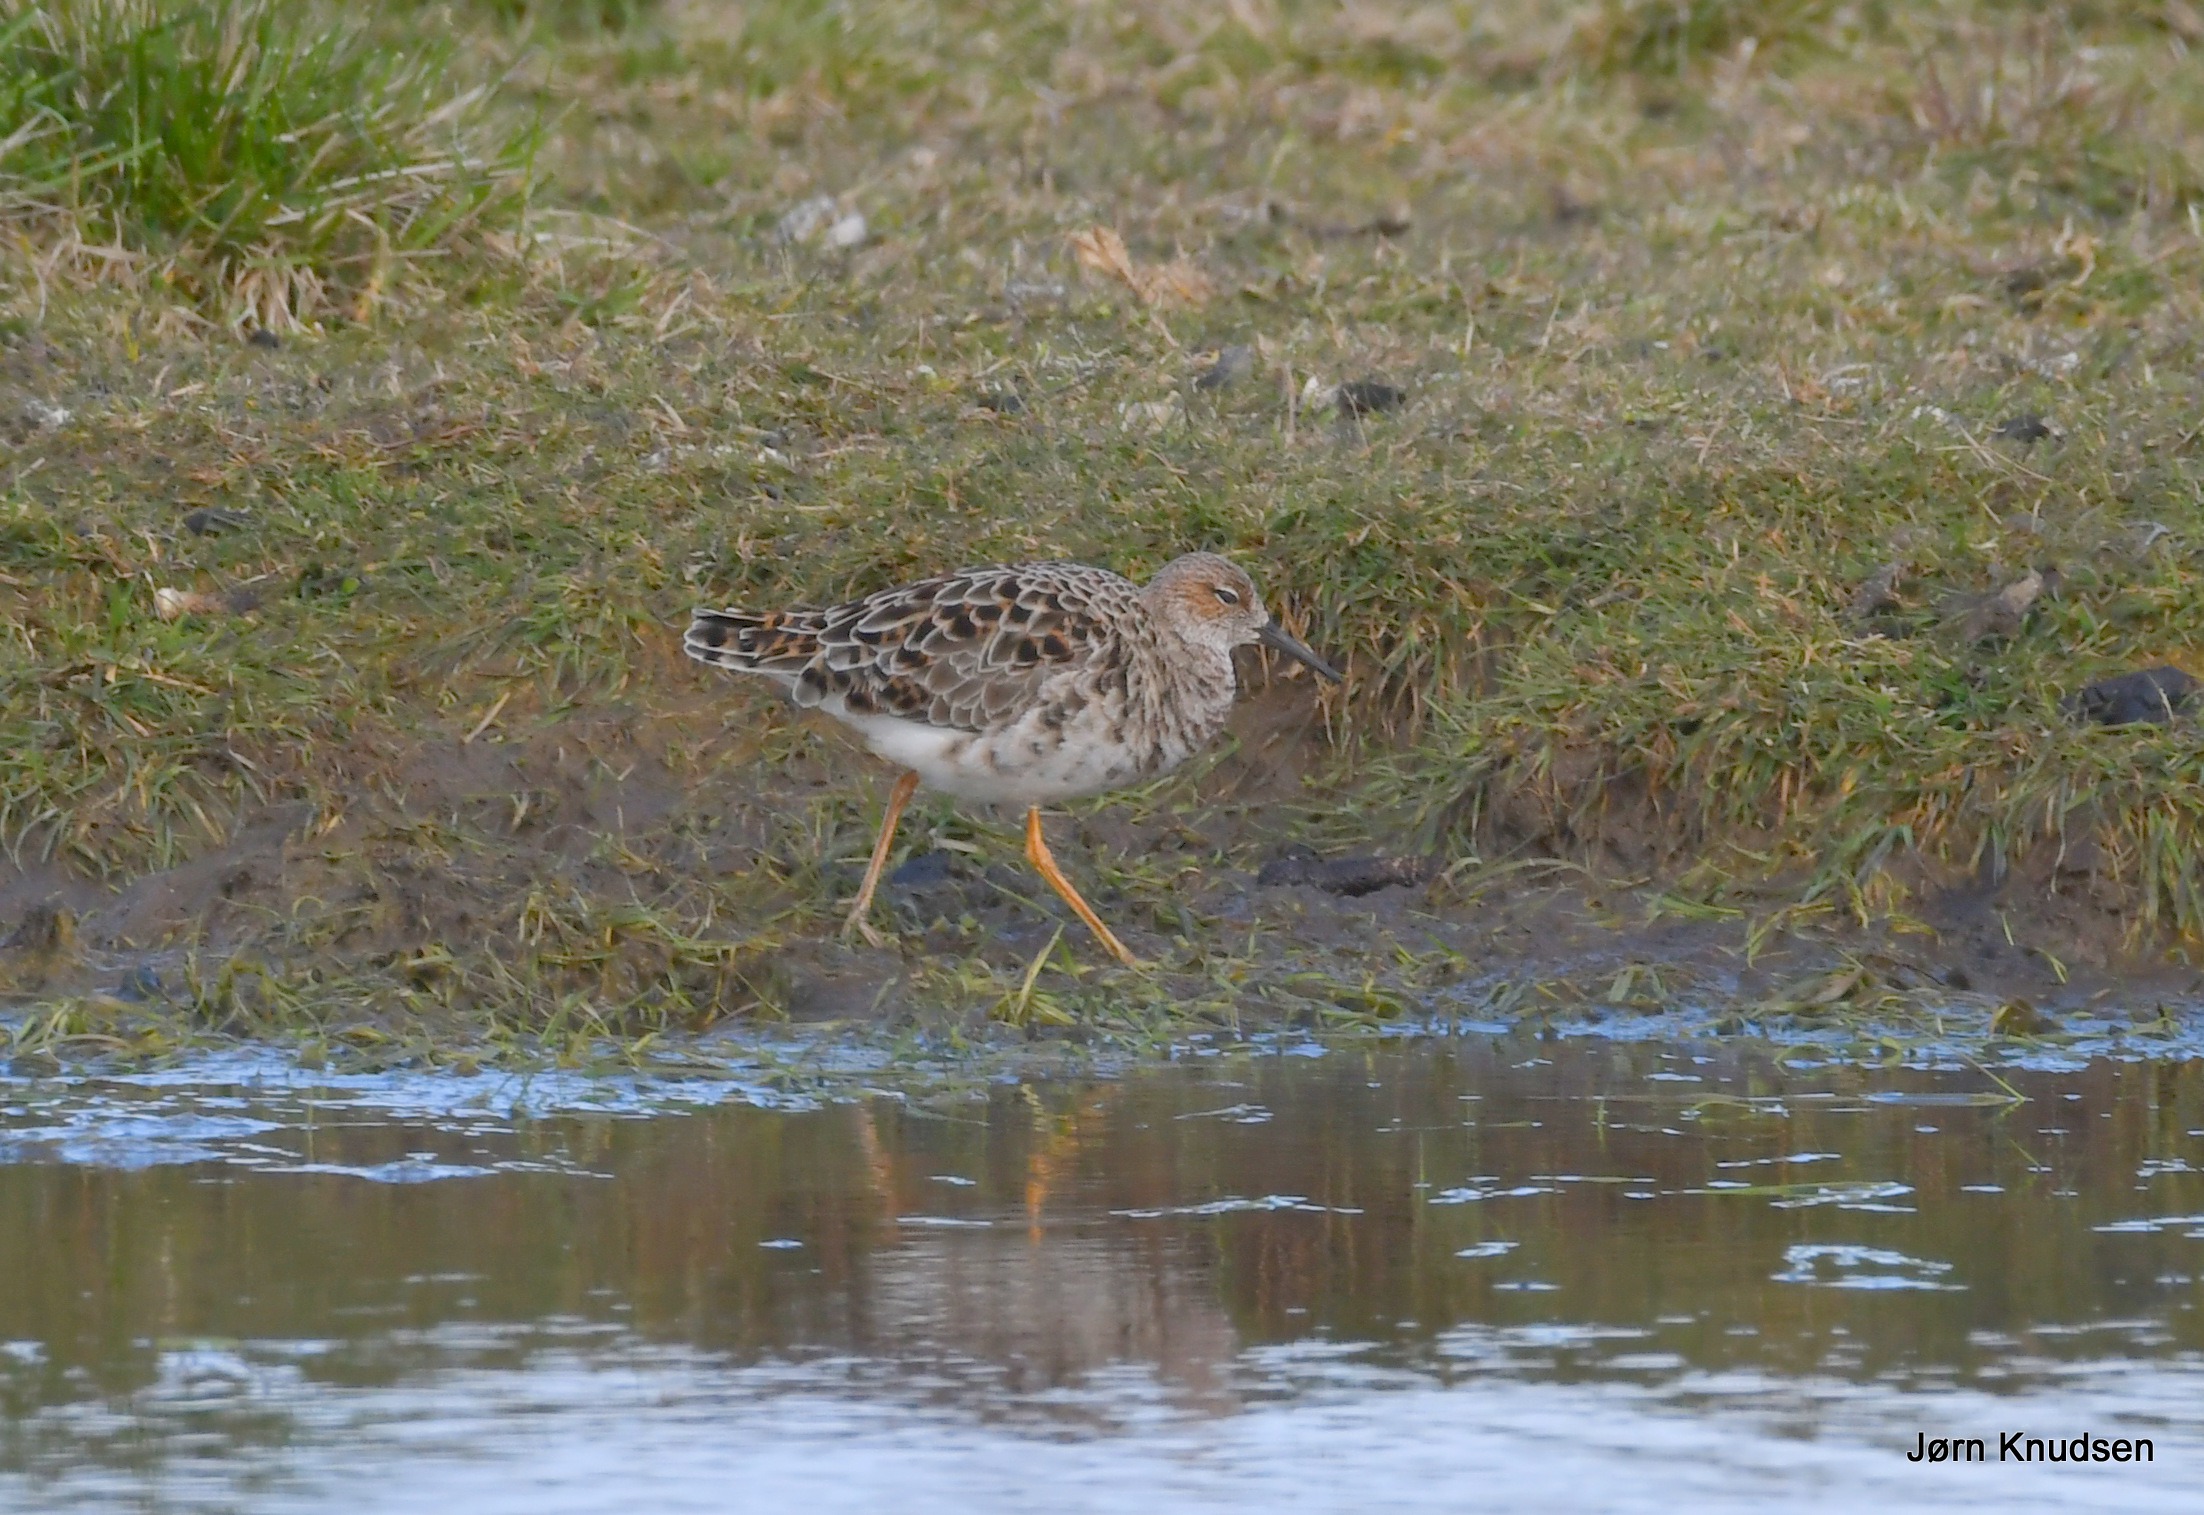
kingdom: Animalia
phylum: Chordata
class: Aves
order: Charadriiformes
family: Scolopacidae
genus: Calidris
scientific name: Calidris pugnax
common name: Brushane
